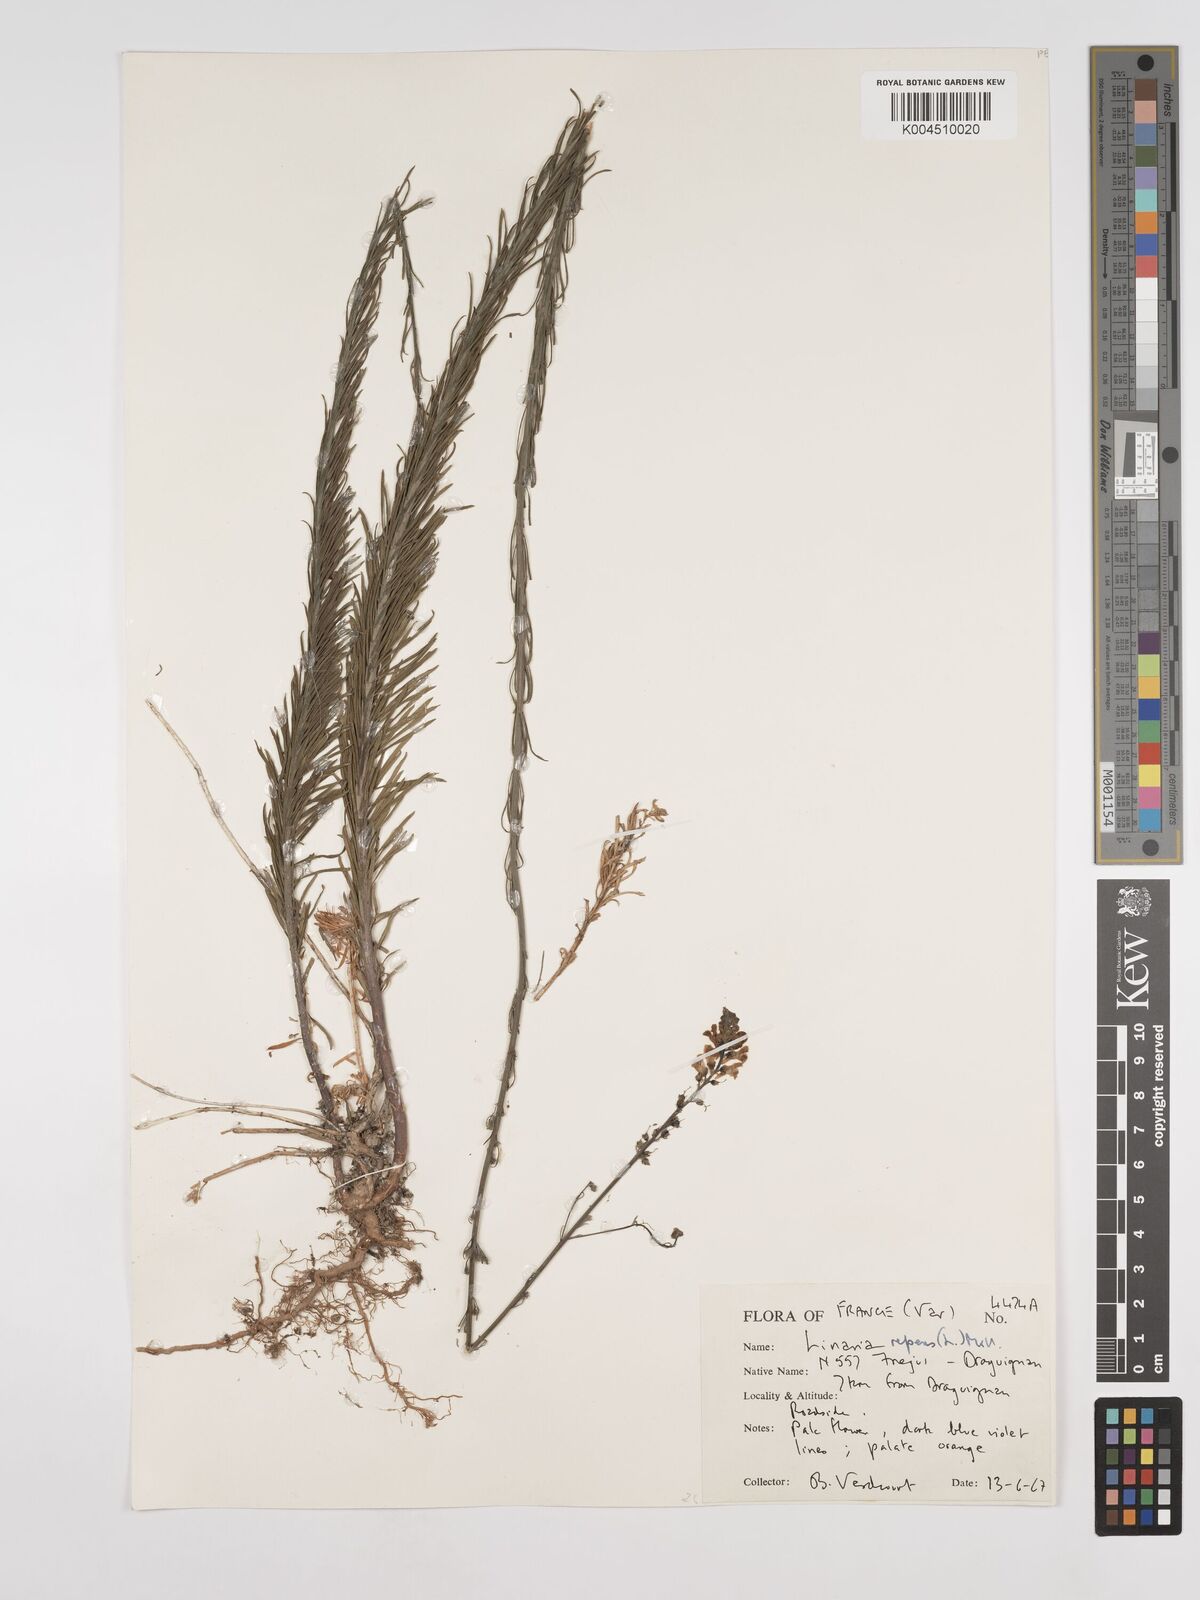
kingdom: Plantae
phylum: Tracheophyta
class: Magnoliopsida
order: Lamiales
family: Plantaginaceae
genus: Linaria
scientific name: Linaria repens
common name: Pale toadflax
